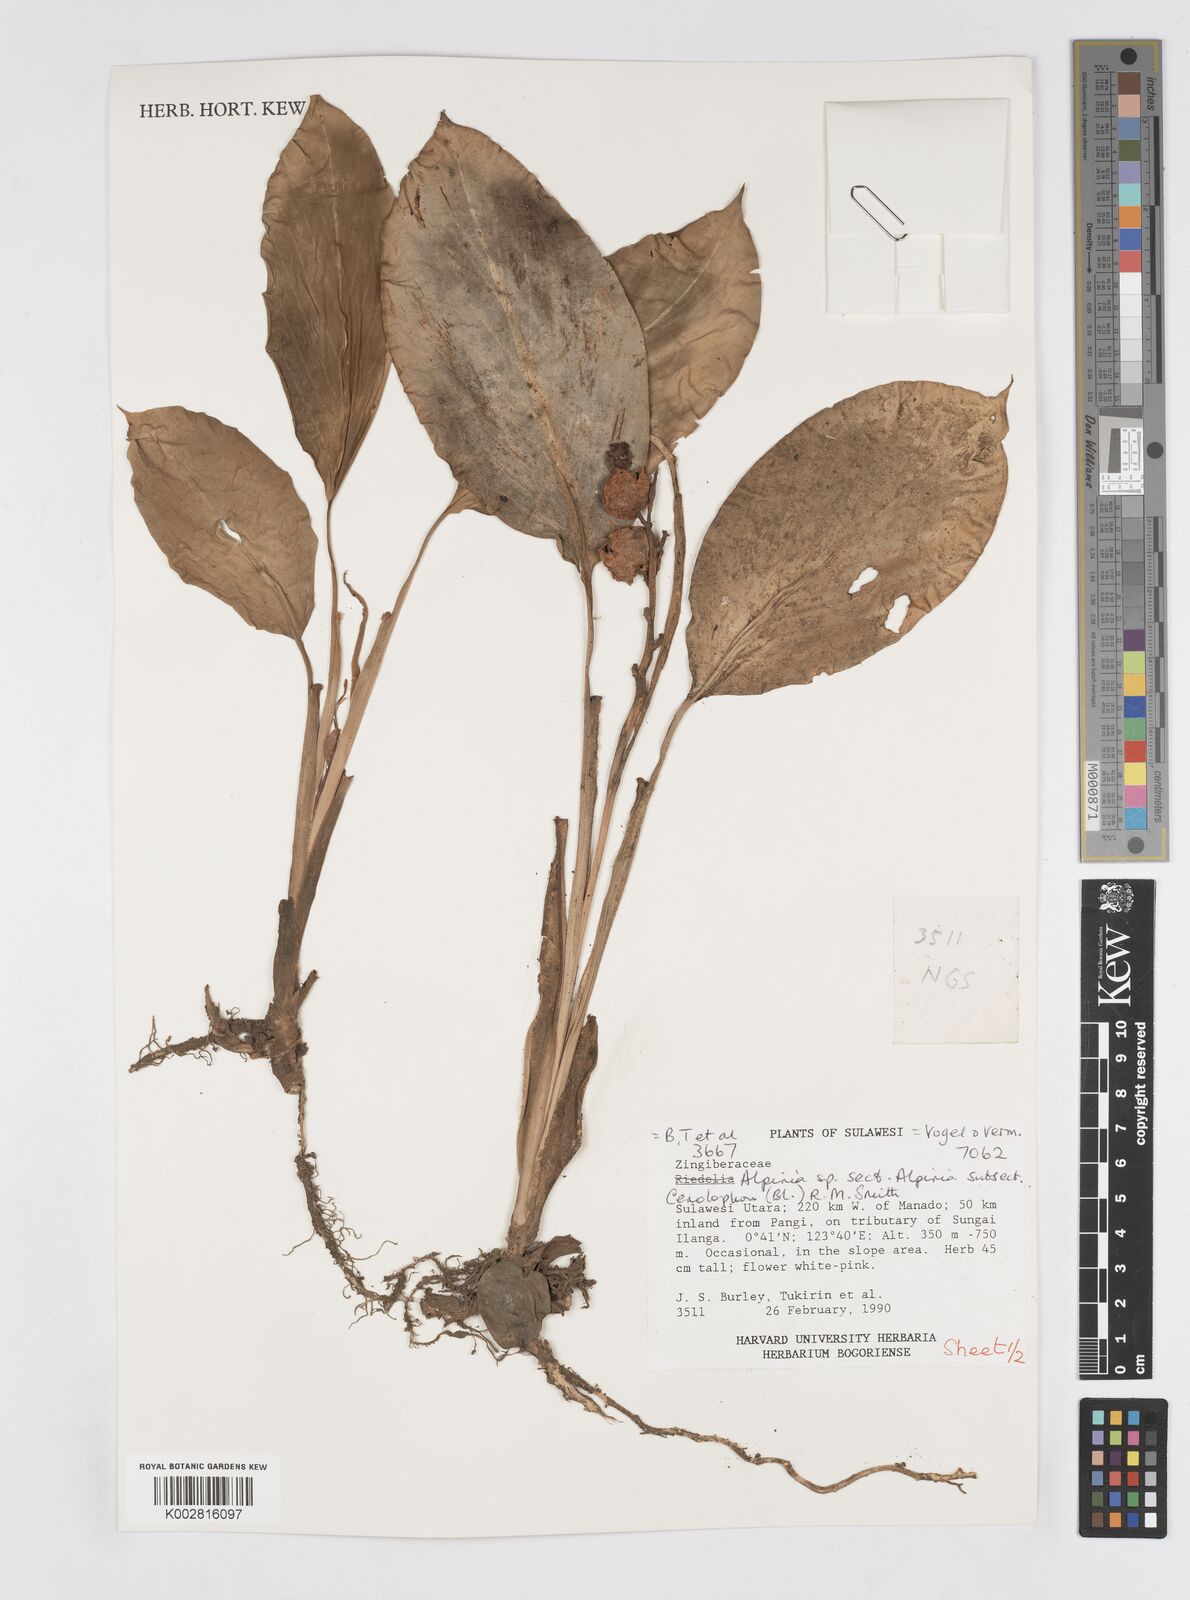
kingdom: Plantae
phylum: Tracheophyta
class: Liliopsida
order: Zingiberales
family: Zingiberaceae
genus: Alpinia
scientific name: Alpinia
